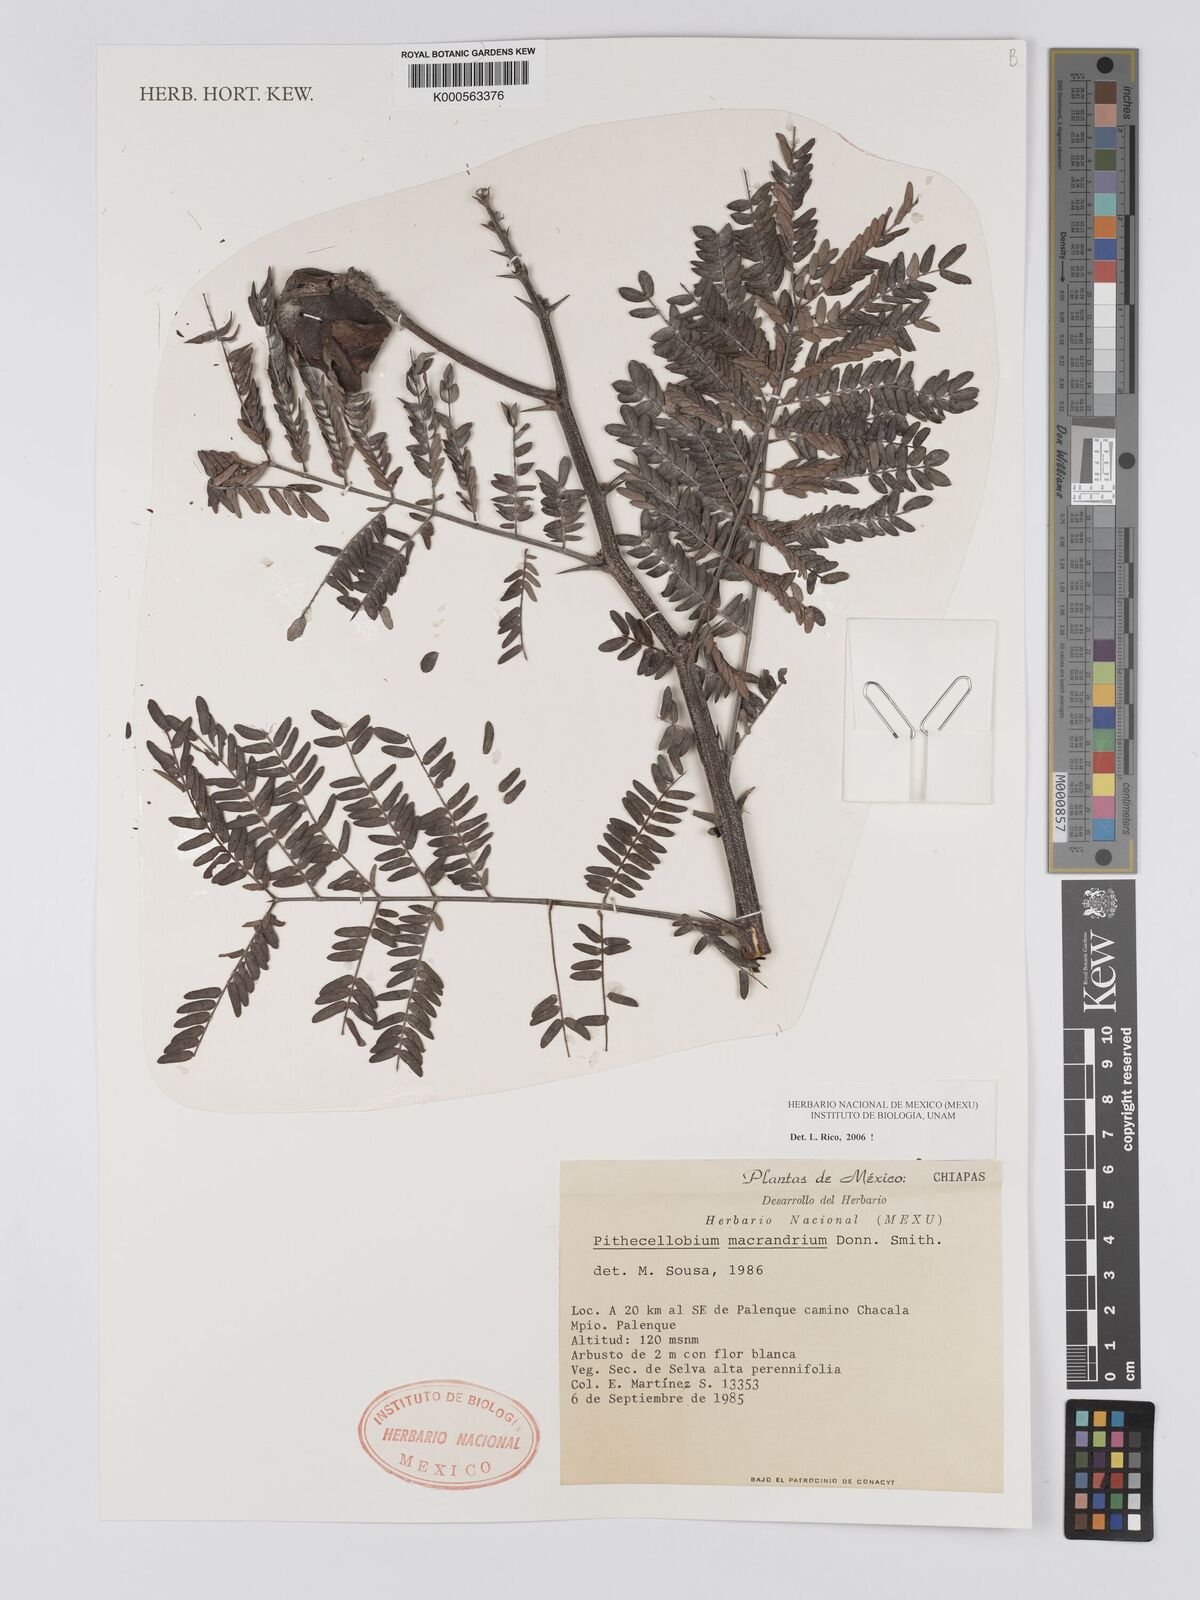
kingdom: Plantae
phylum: Tracheophyta
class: Magnoliopsida
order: Fabales
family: Fabaceae
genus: Pithecellobium
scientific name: Pithecellobium macrandrium
